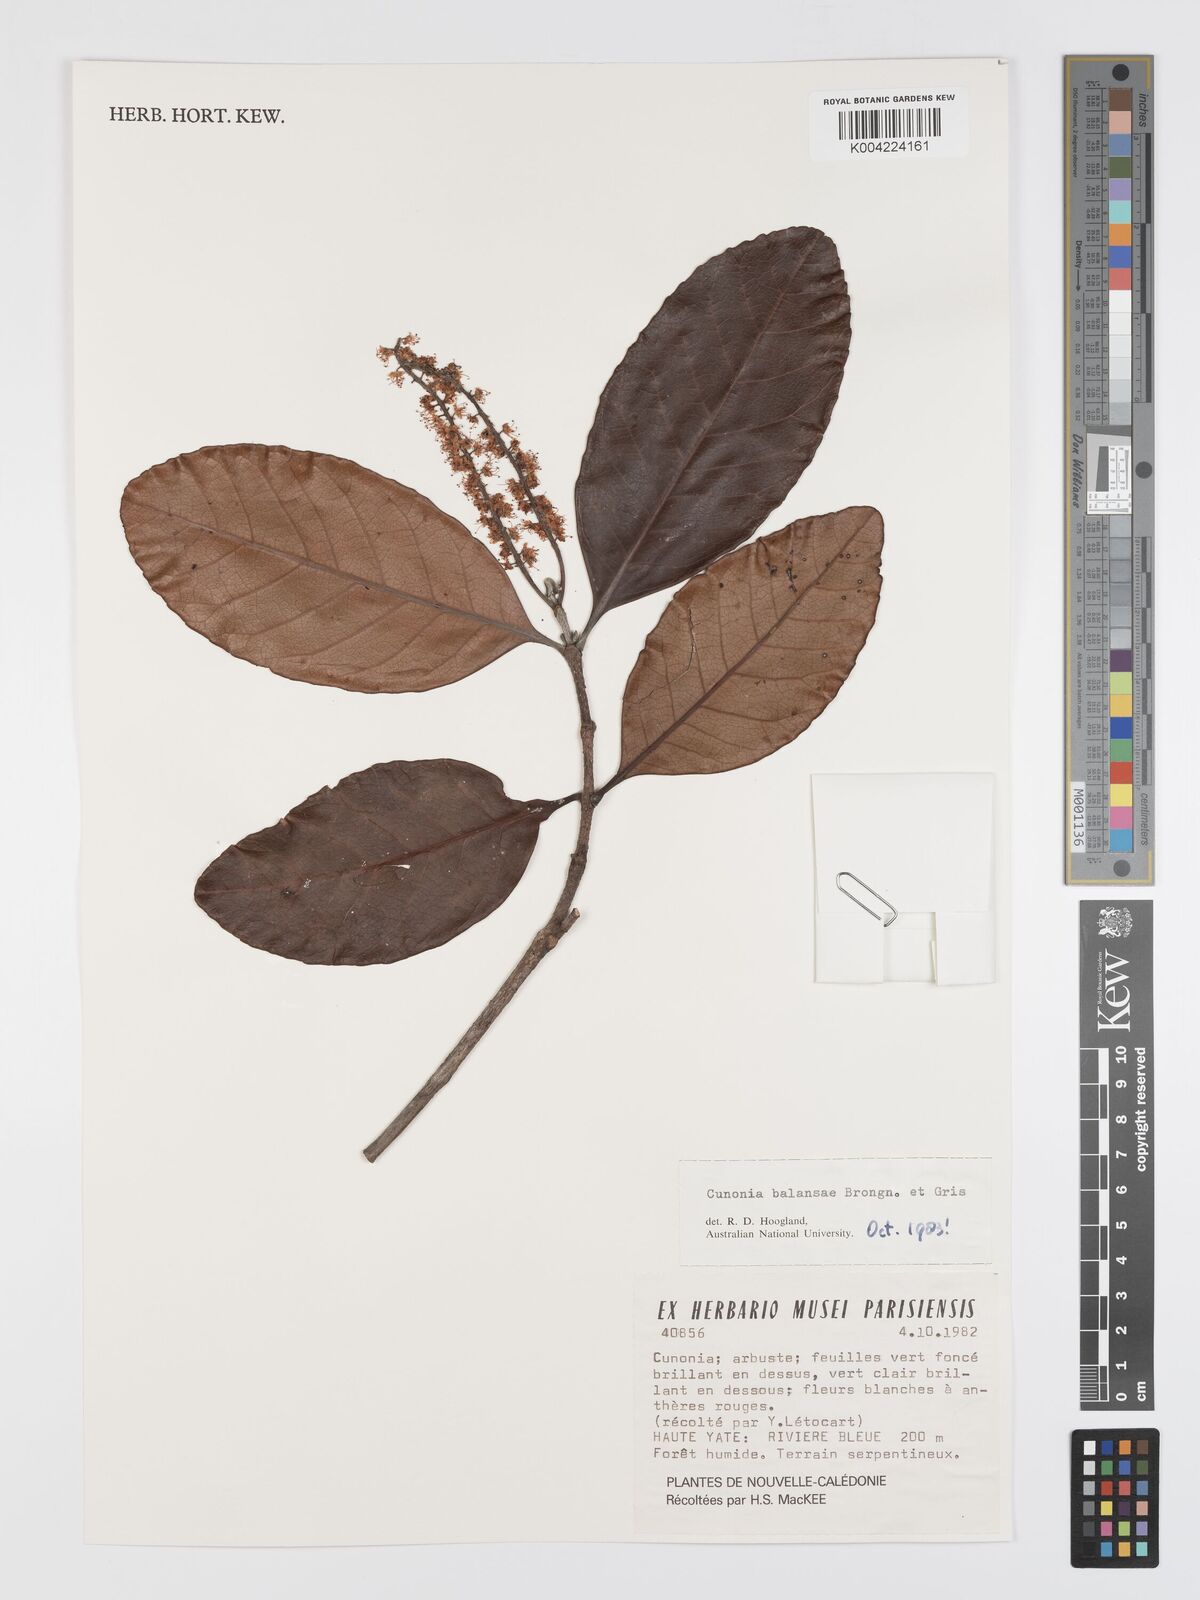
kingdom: Plantae
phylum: Tracheophyta
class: Magnoliopsida
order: Oxalidales
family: Cunoniaceae
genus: Cunonia
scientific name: Cunonia balansae
